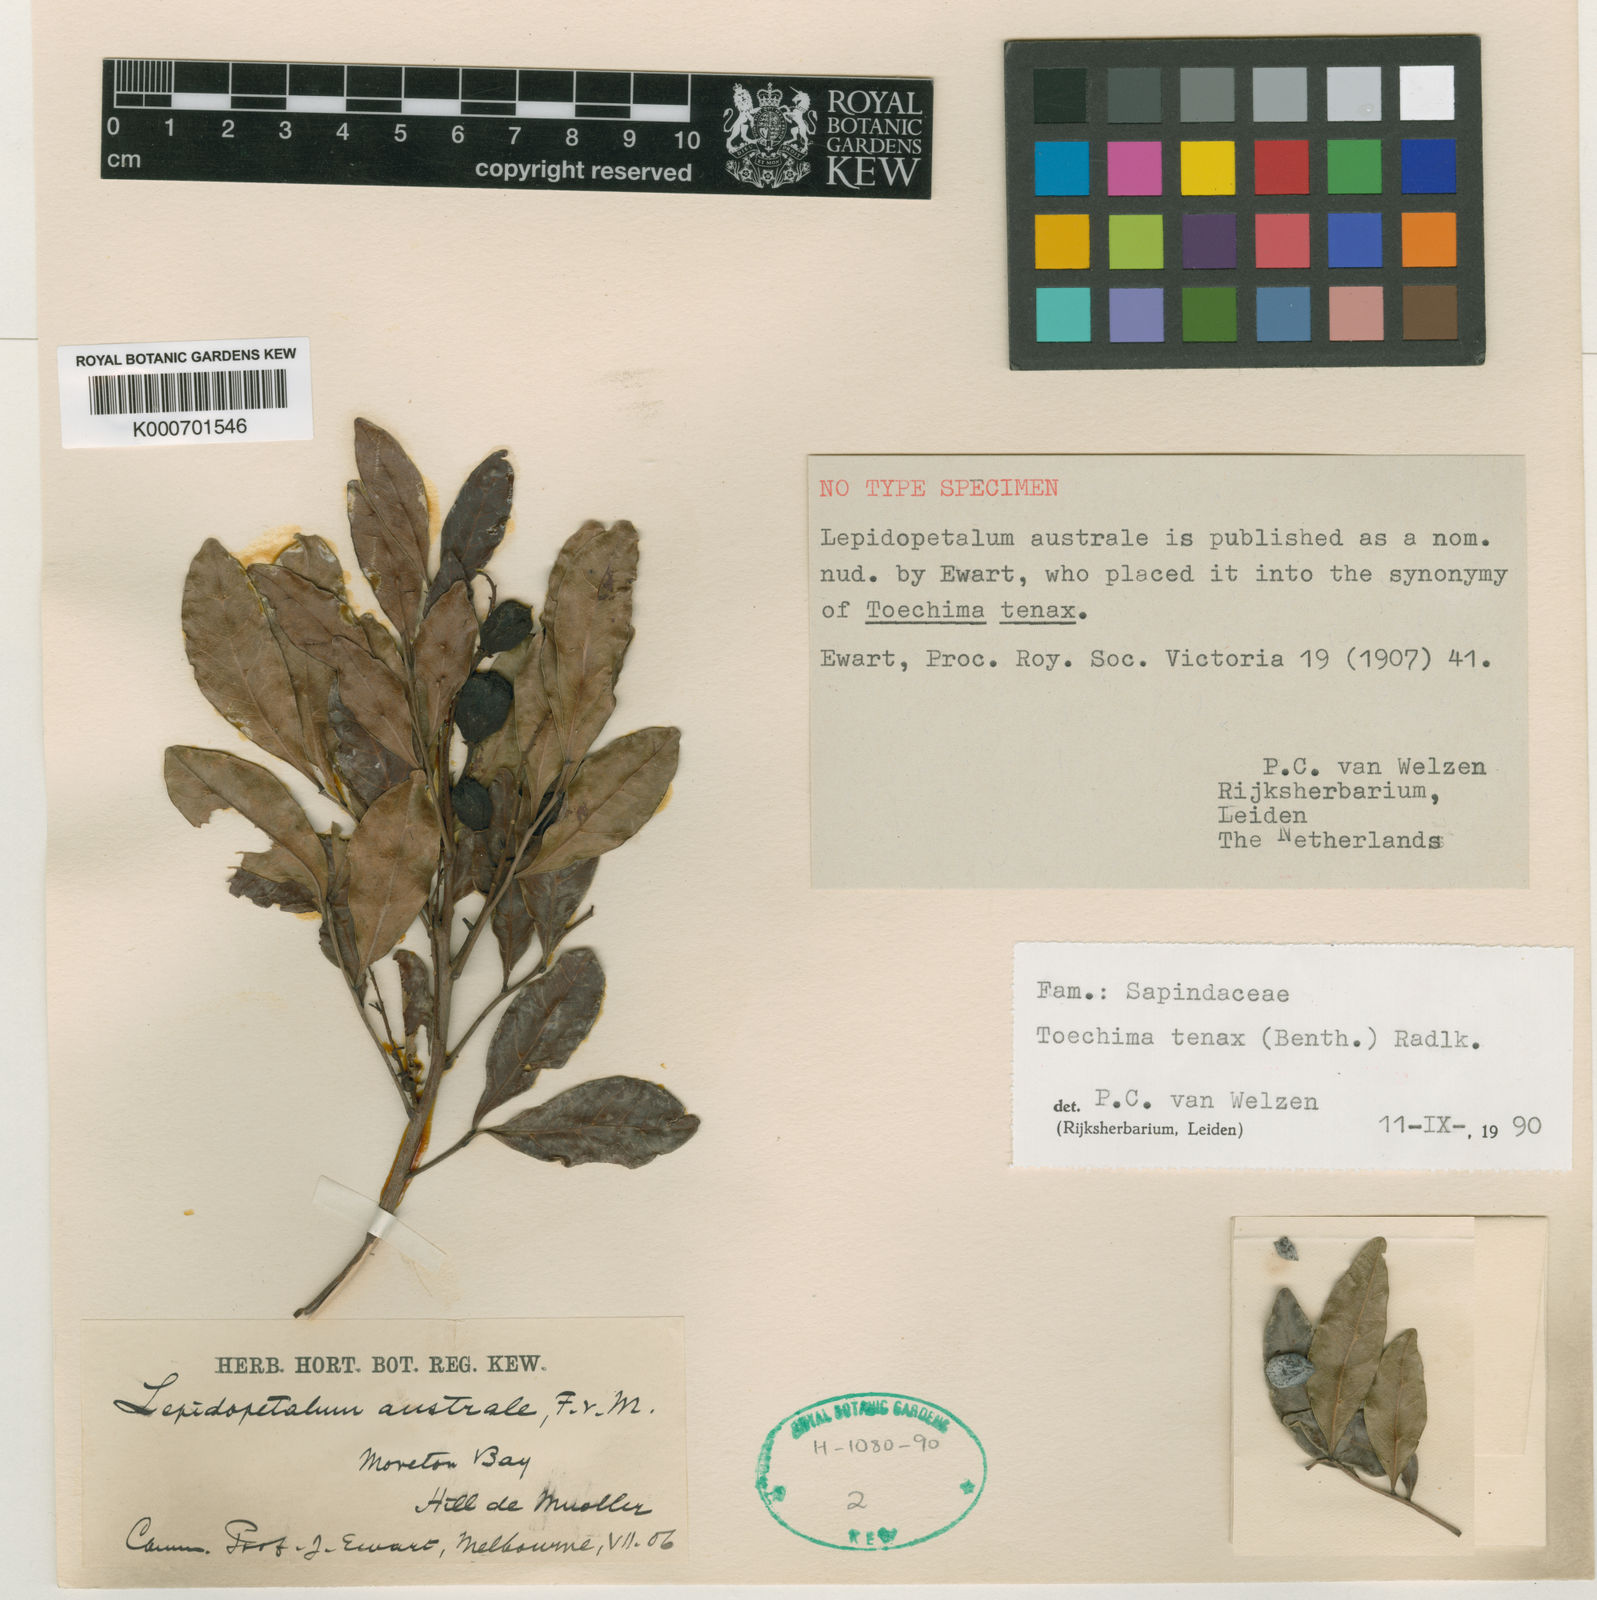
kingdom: Plantae
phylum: Tracheophyta
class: Magnoliopsida
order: Sapindales
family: Sapindaceae
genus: Toechima
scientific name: Toechima tenax
